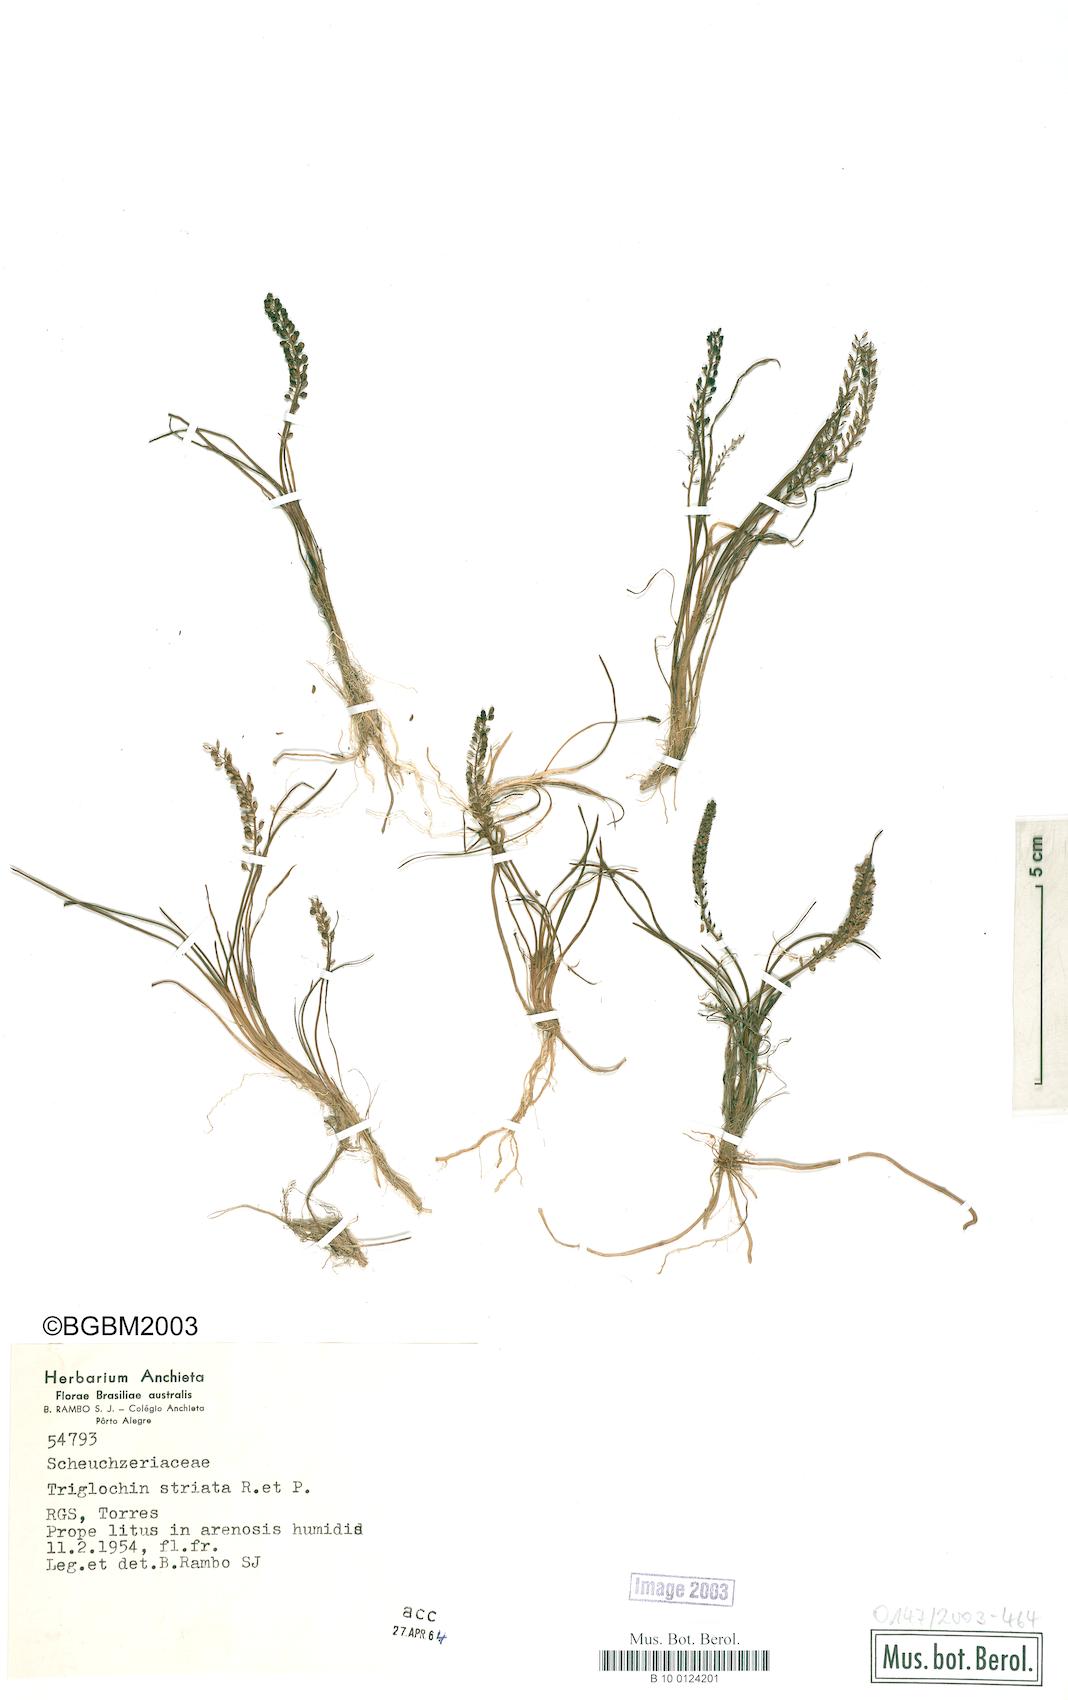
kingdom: Plantae
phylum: Tracheophyta
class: Liliopsida
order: Alismatales
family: Juncaginaceae
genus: Triglochin
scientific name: Triglochin striata
